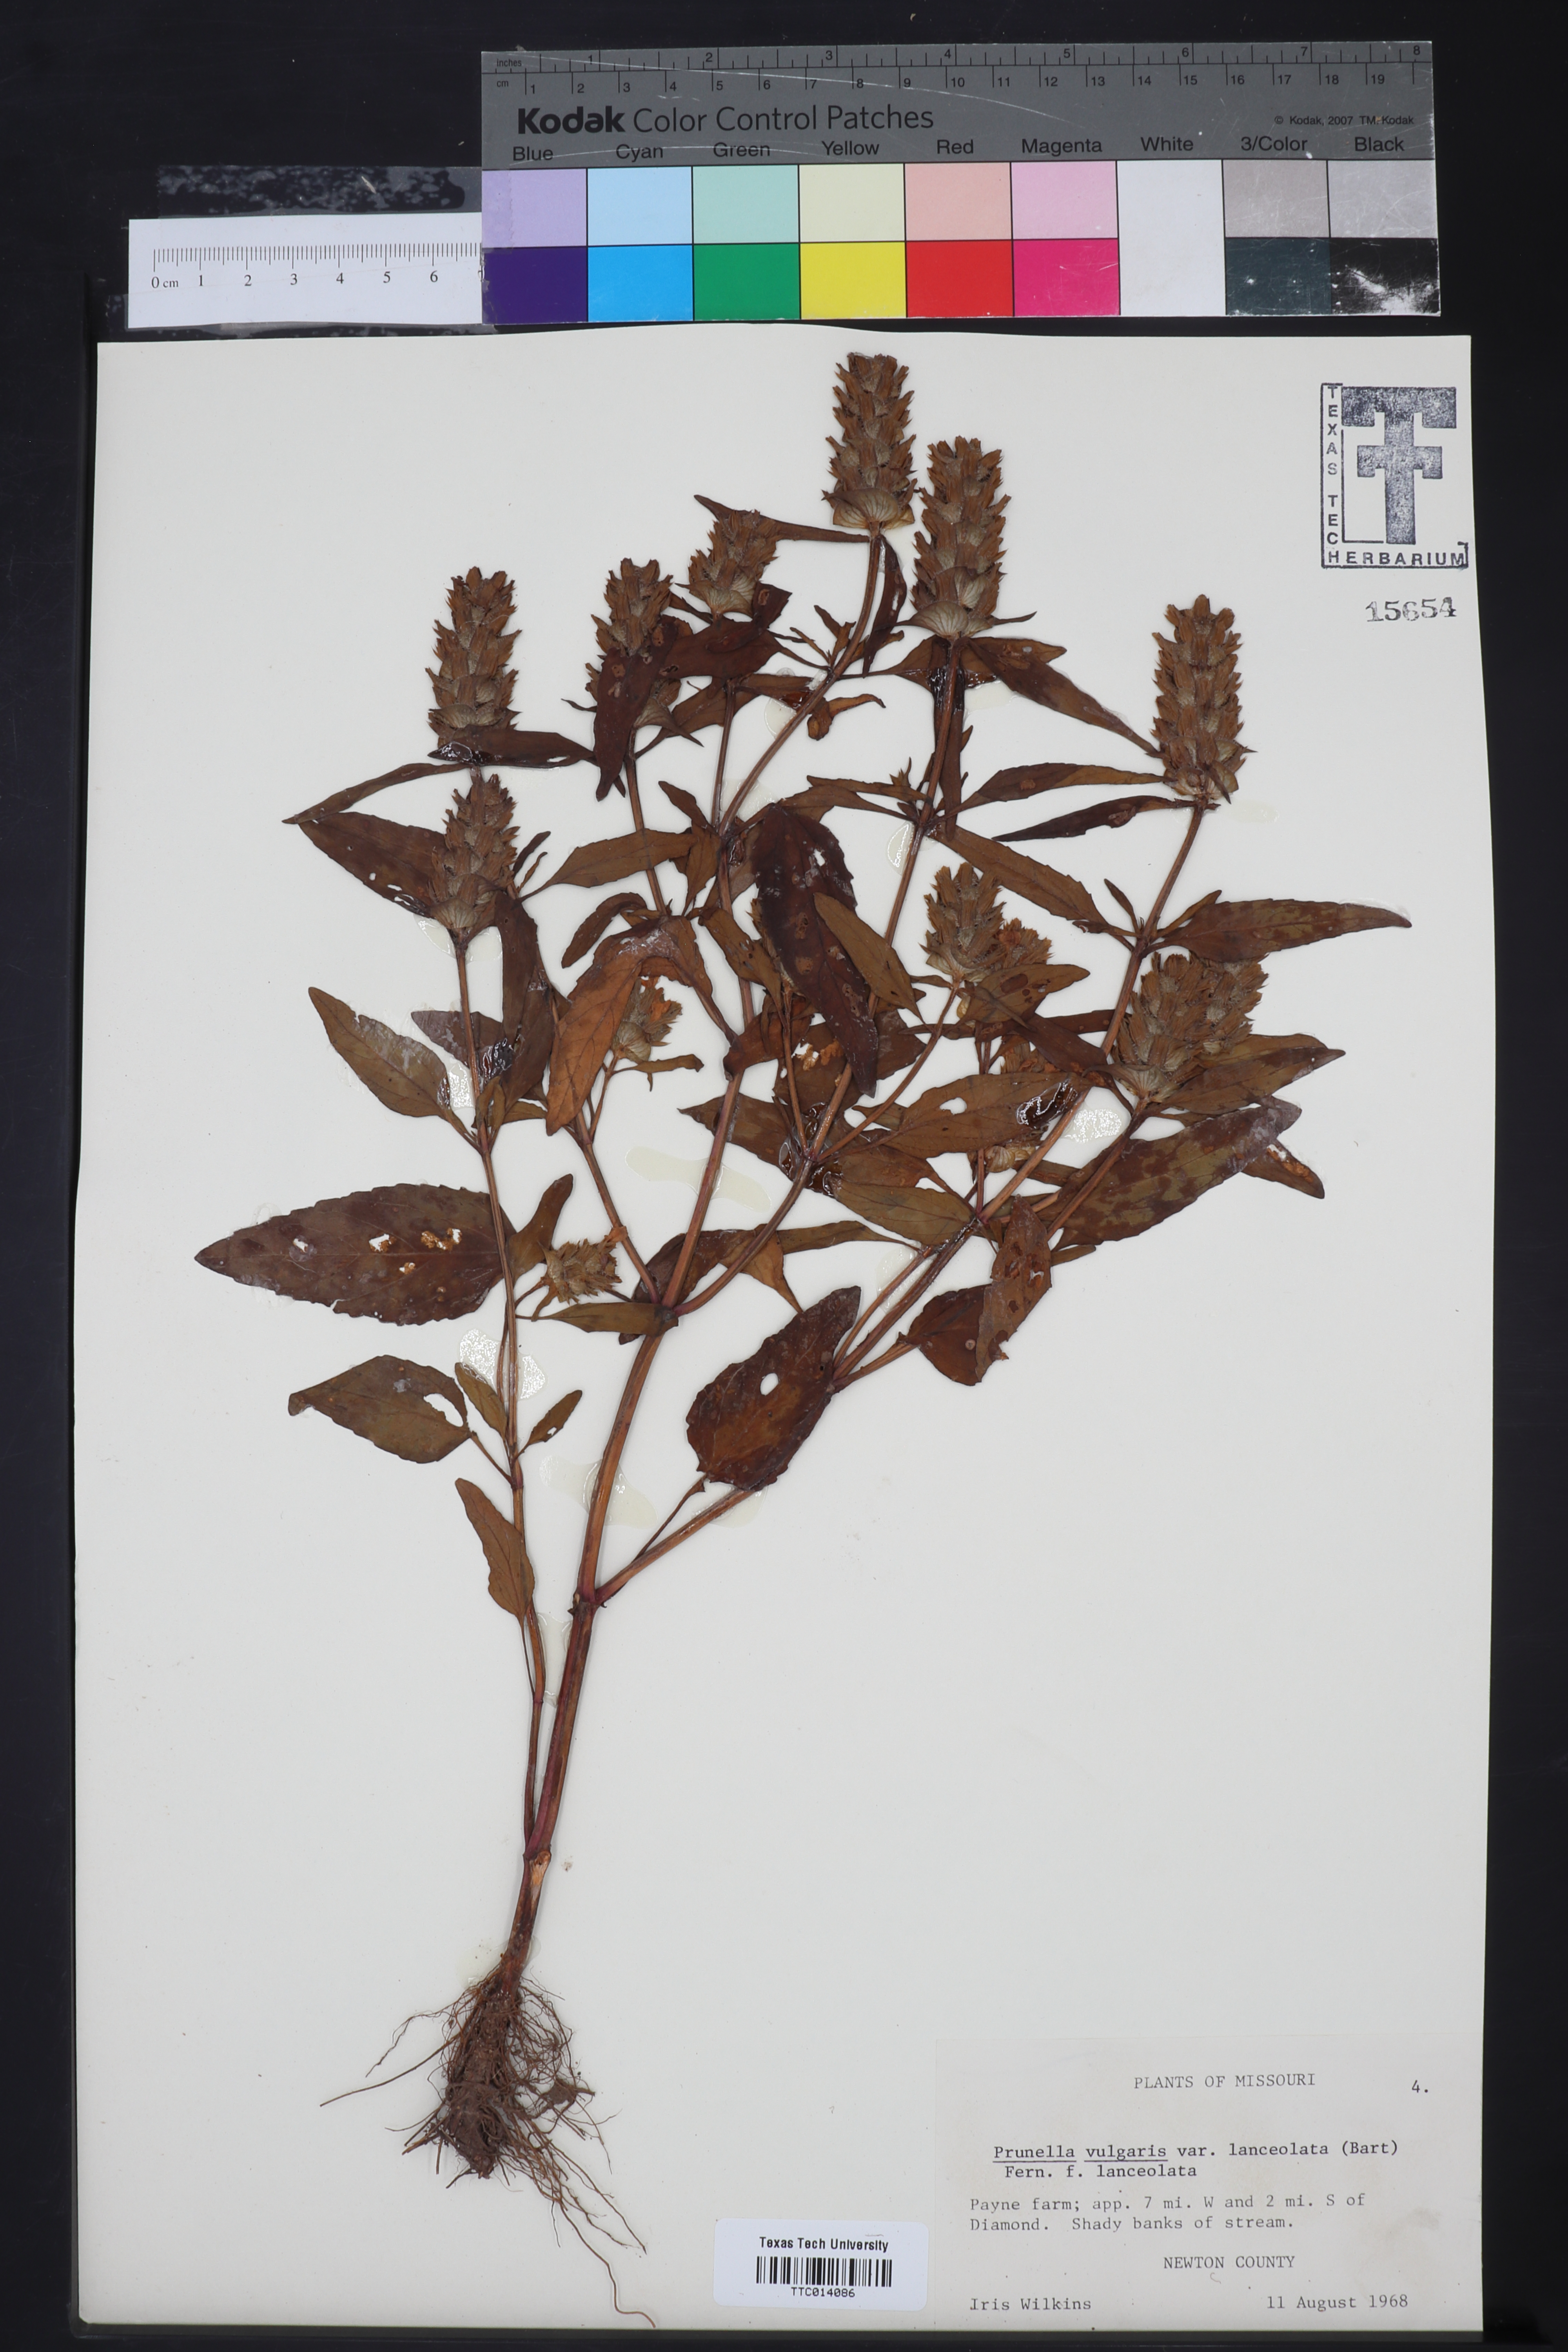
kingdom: Plantae
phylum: Tracheophyta
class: Magnoliopsida
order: Lamiales
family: Lamiaceae
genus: Prunella
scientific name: Prunella vulgaris
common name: Heal-all
